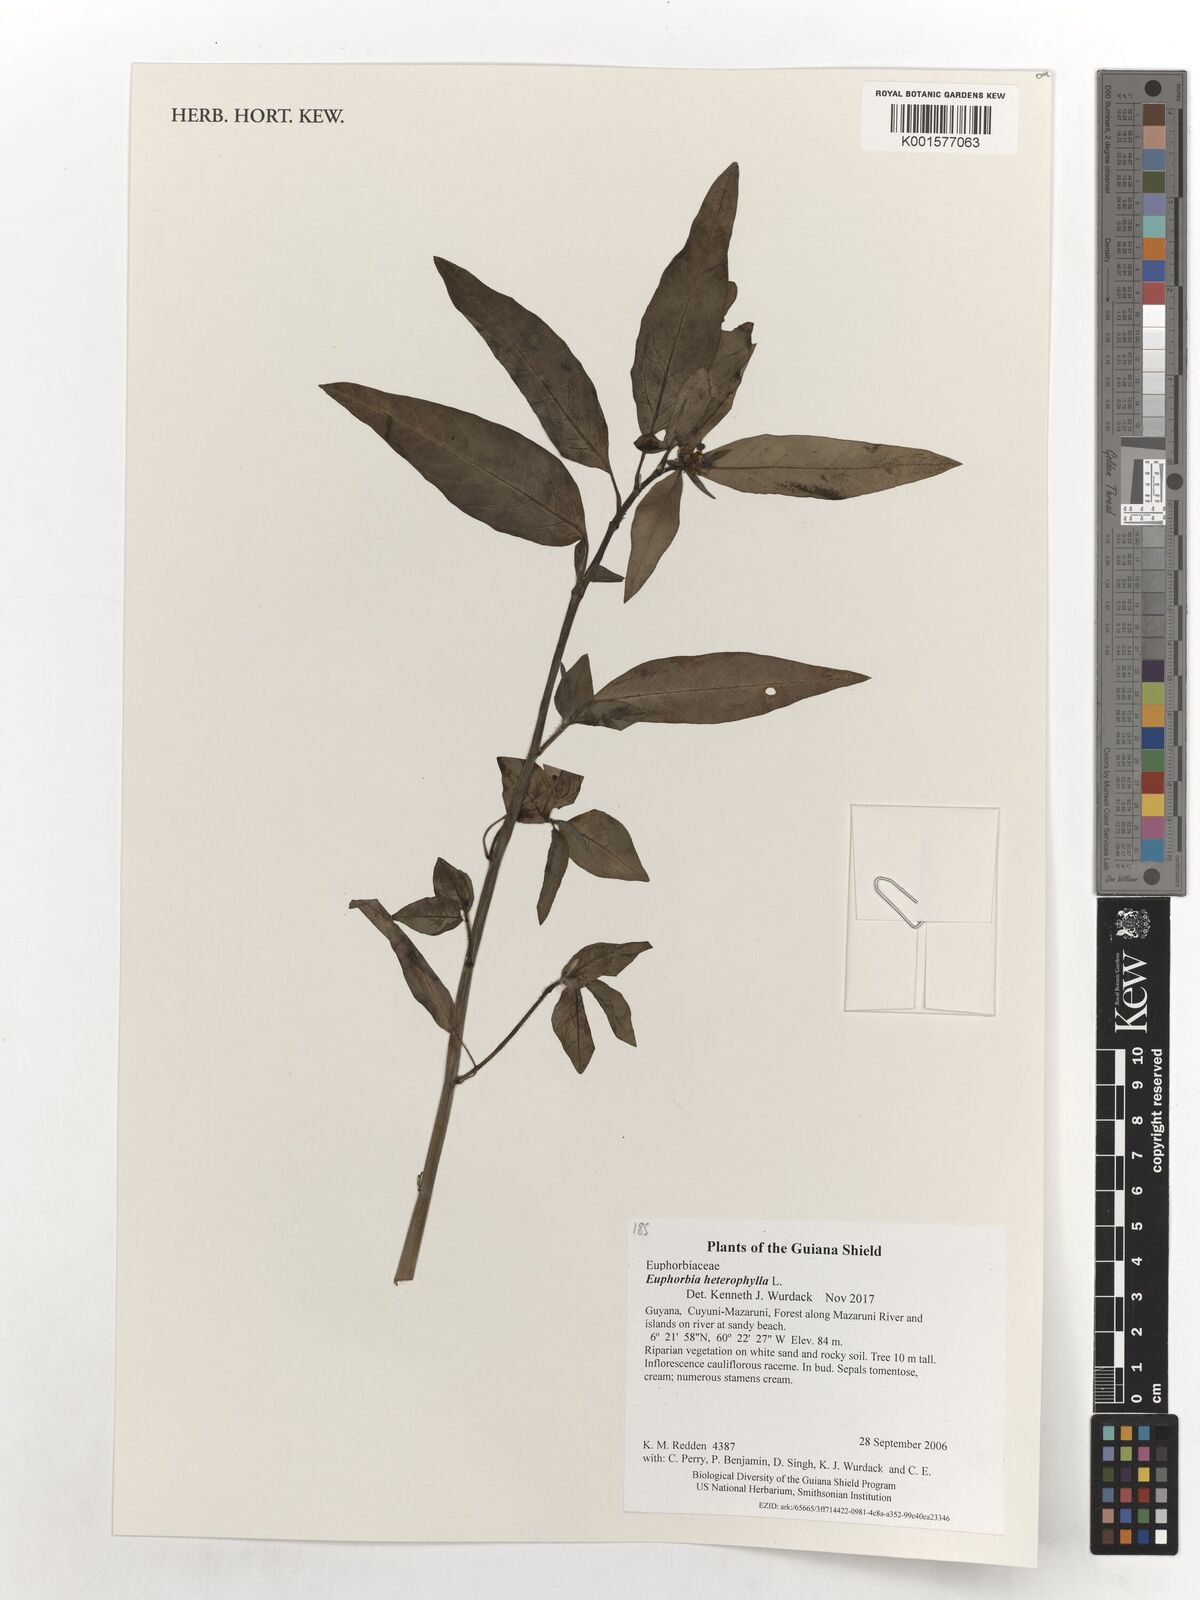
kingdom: Plantae
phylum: Tracheophyta
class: Magnoliopsida
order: Malpighiales
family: Euphorbiaceae
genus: Euphorbia
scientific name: Euphorbia heterophylla
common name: Mexican fireplant
